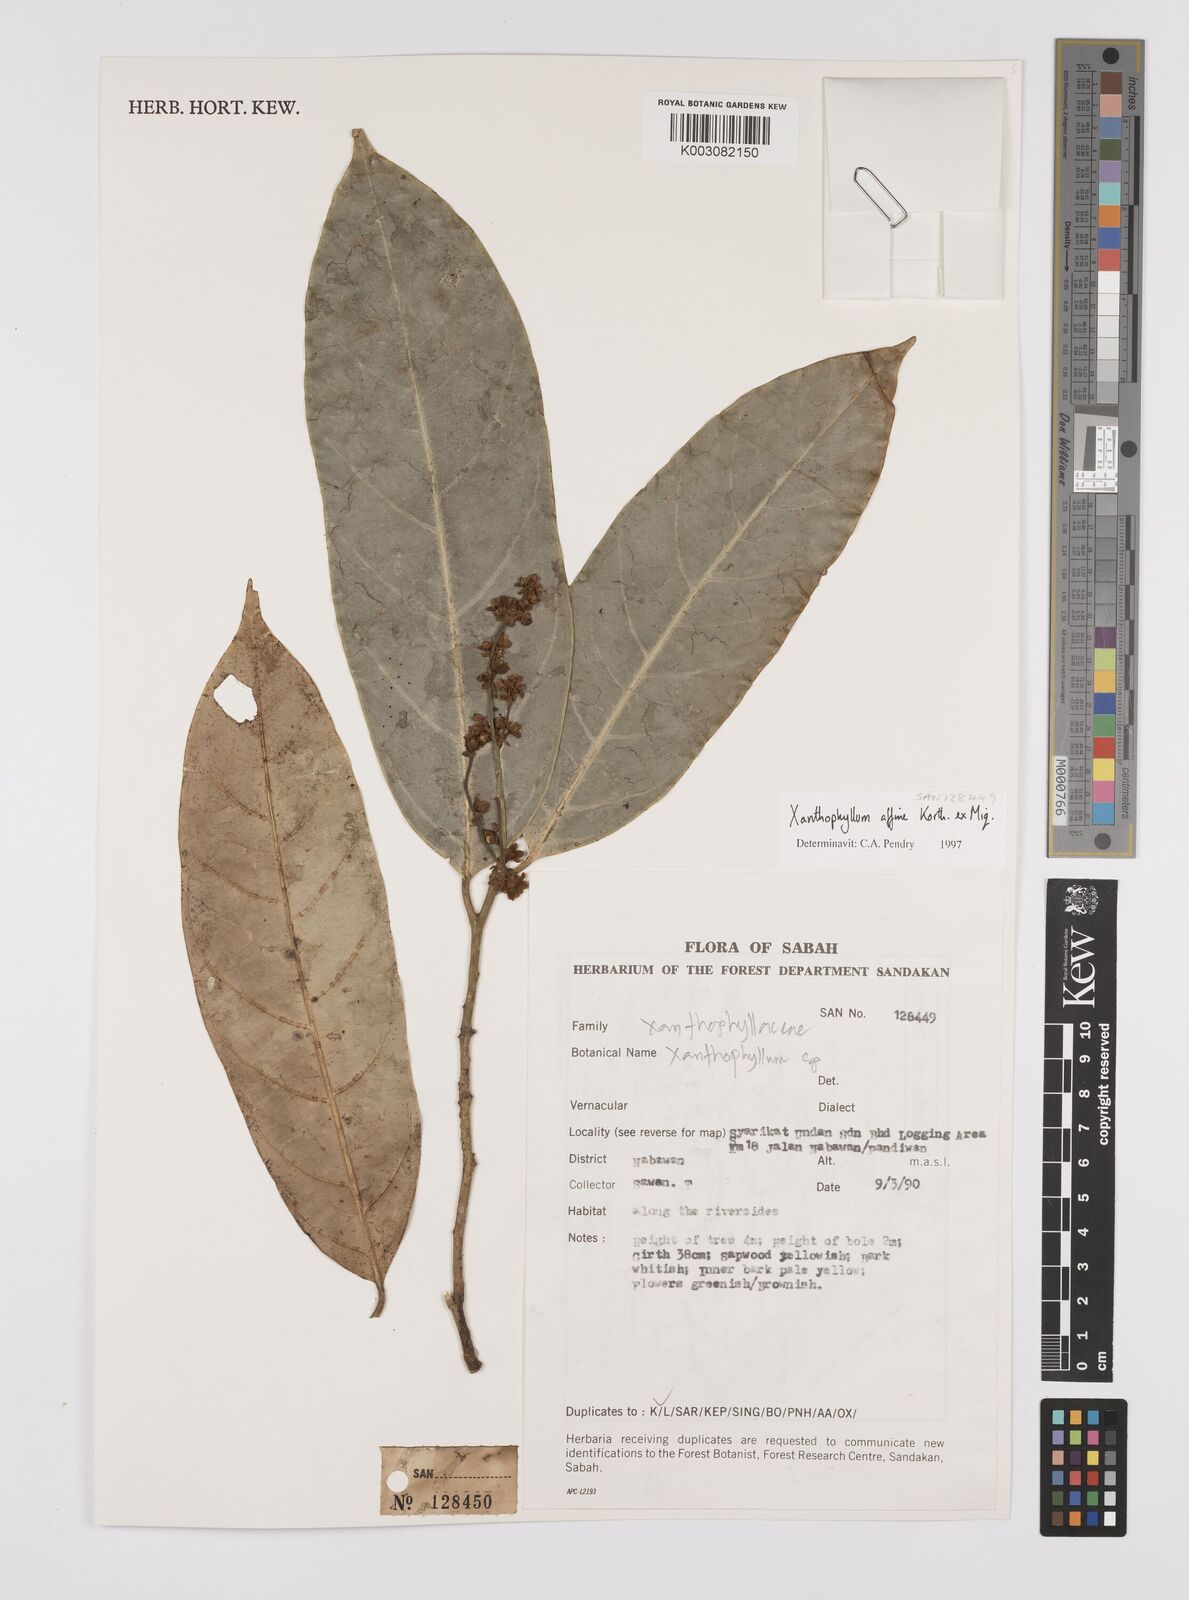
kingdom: Plantae
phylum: Tracheophyta
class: Magnoliopsida
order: Fabales
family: Polygalaceae
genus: Xanthophyllum
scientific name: Xanthophyllum flavescens
